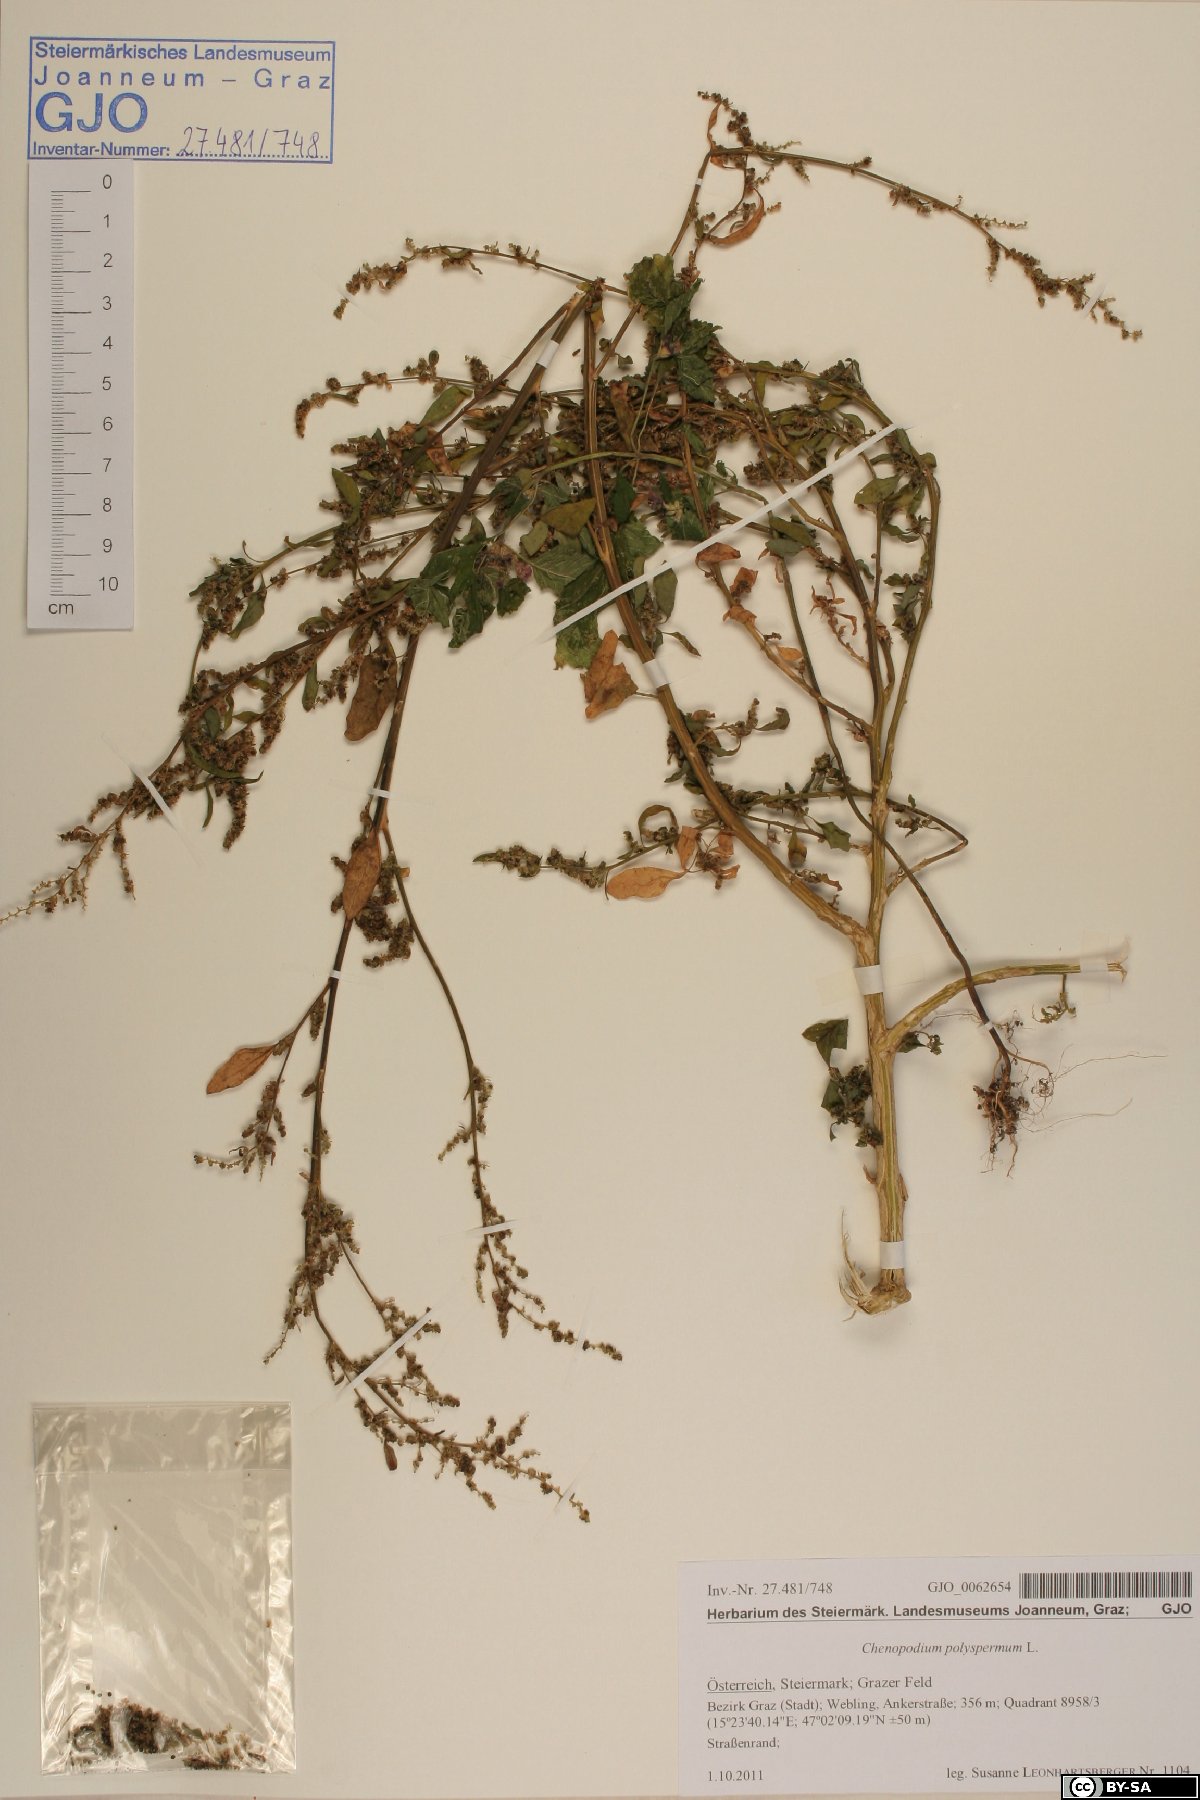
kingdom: Plantae
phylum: Tracheophyta
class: Magnoliopsida
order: Caryophyllales
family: Amaranthaceae
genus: Lipandra
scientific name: Lipandra polysperma
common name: Many-seed goosefoot
